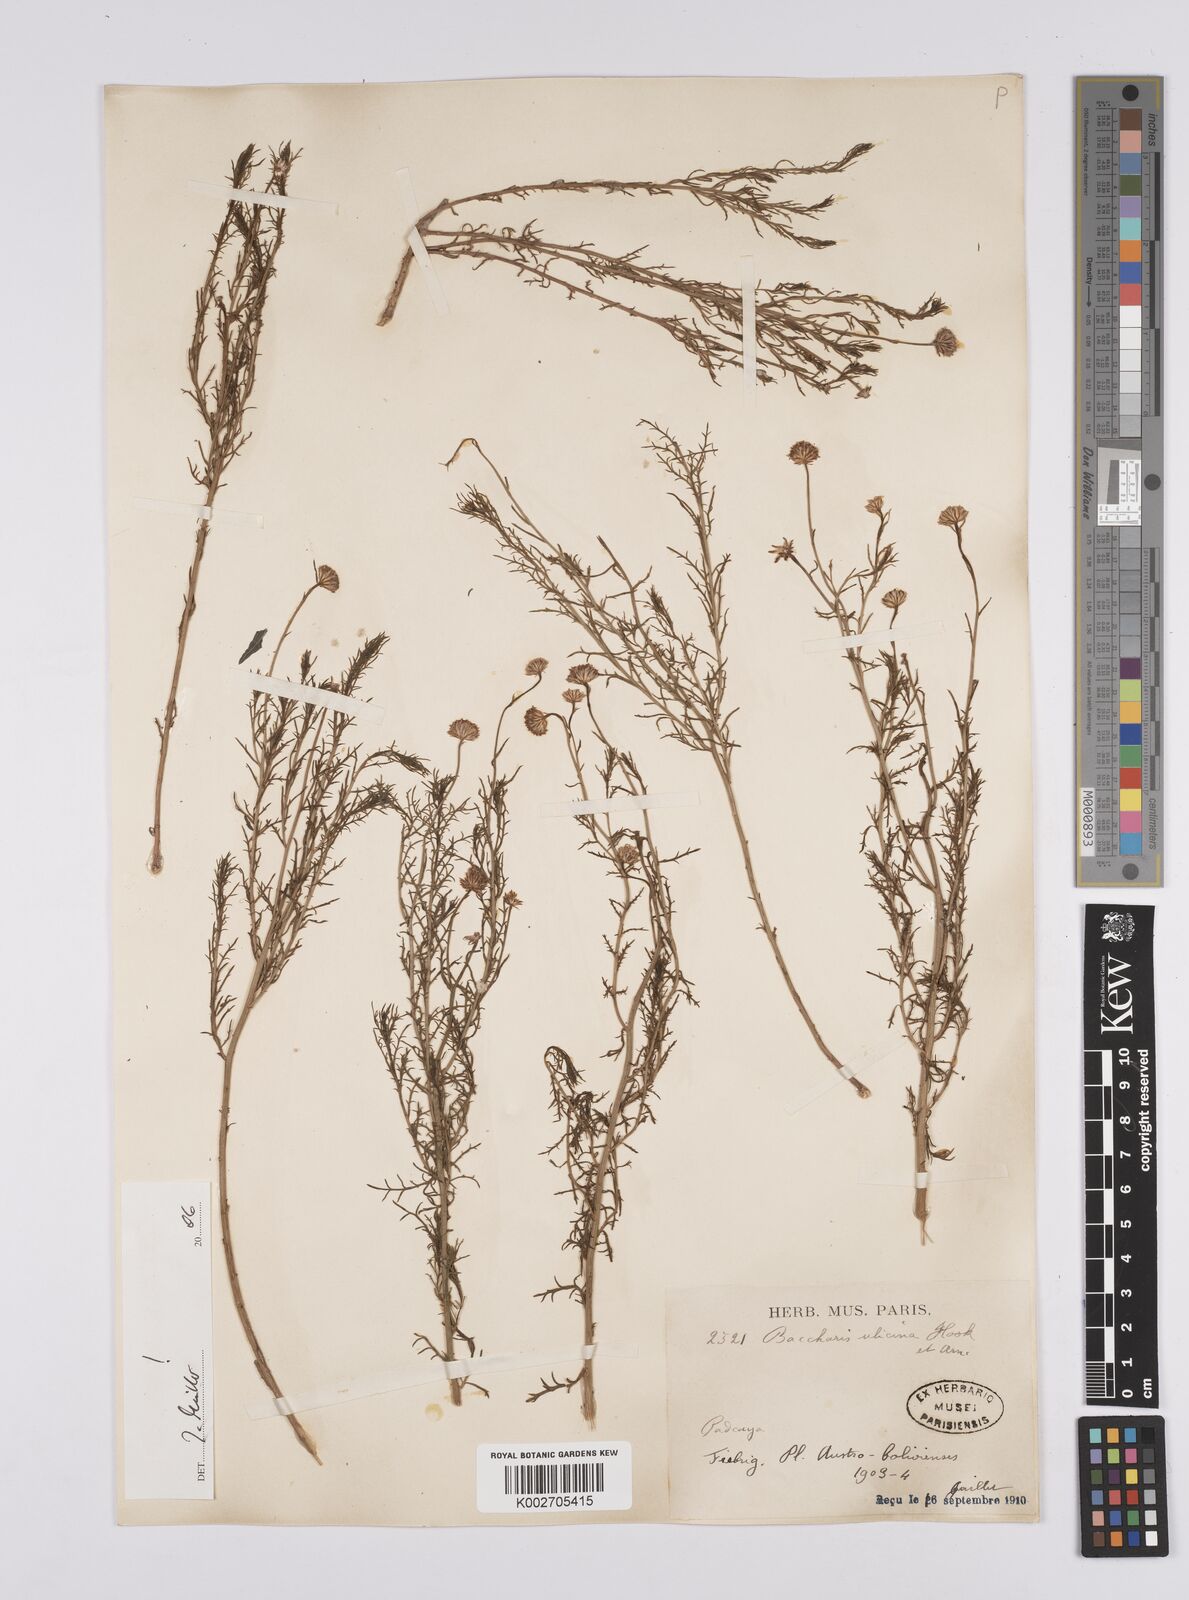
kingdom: Plantae
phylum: Tracheophyta
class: Magnoliopsida
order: Asterales
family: Asteraceae
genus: Baccharis
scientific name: Baccharis ulicina
